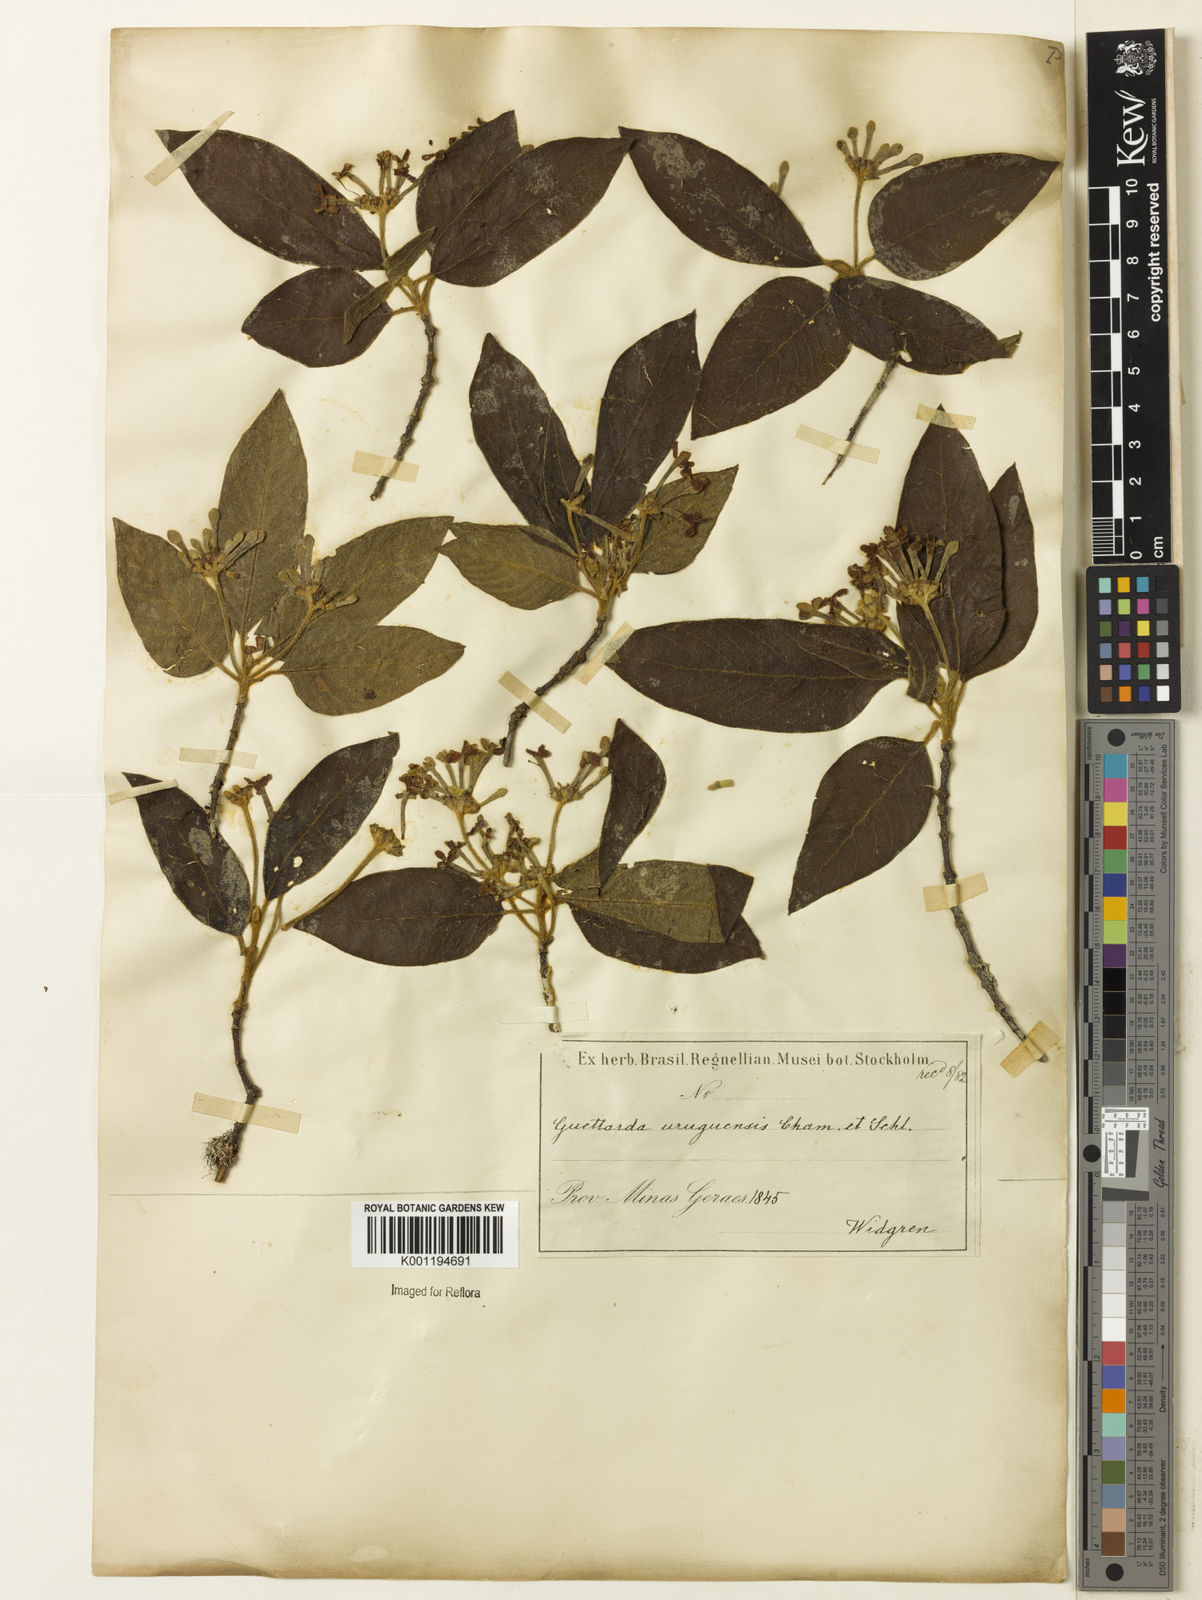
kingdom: Plantae
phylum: Tracheophyta
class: Magnoliopsida
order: Gentianales
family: Rubiaceae
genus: Guettarda
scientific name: Guettarda uruguensis
